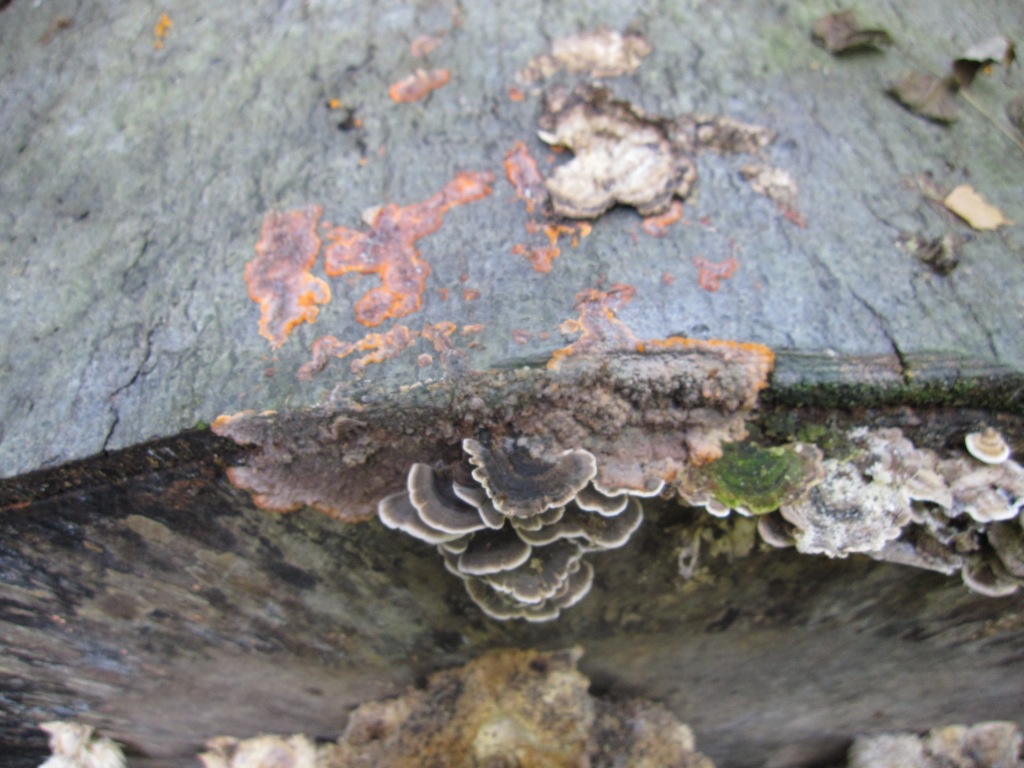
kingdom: Fungi
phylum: Basidiomycota
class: Agaricomycetes
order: Polyporales
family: Meruliaceae
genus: Phlebia
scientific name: Phlebia radiata
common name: stråle-åresvamp
